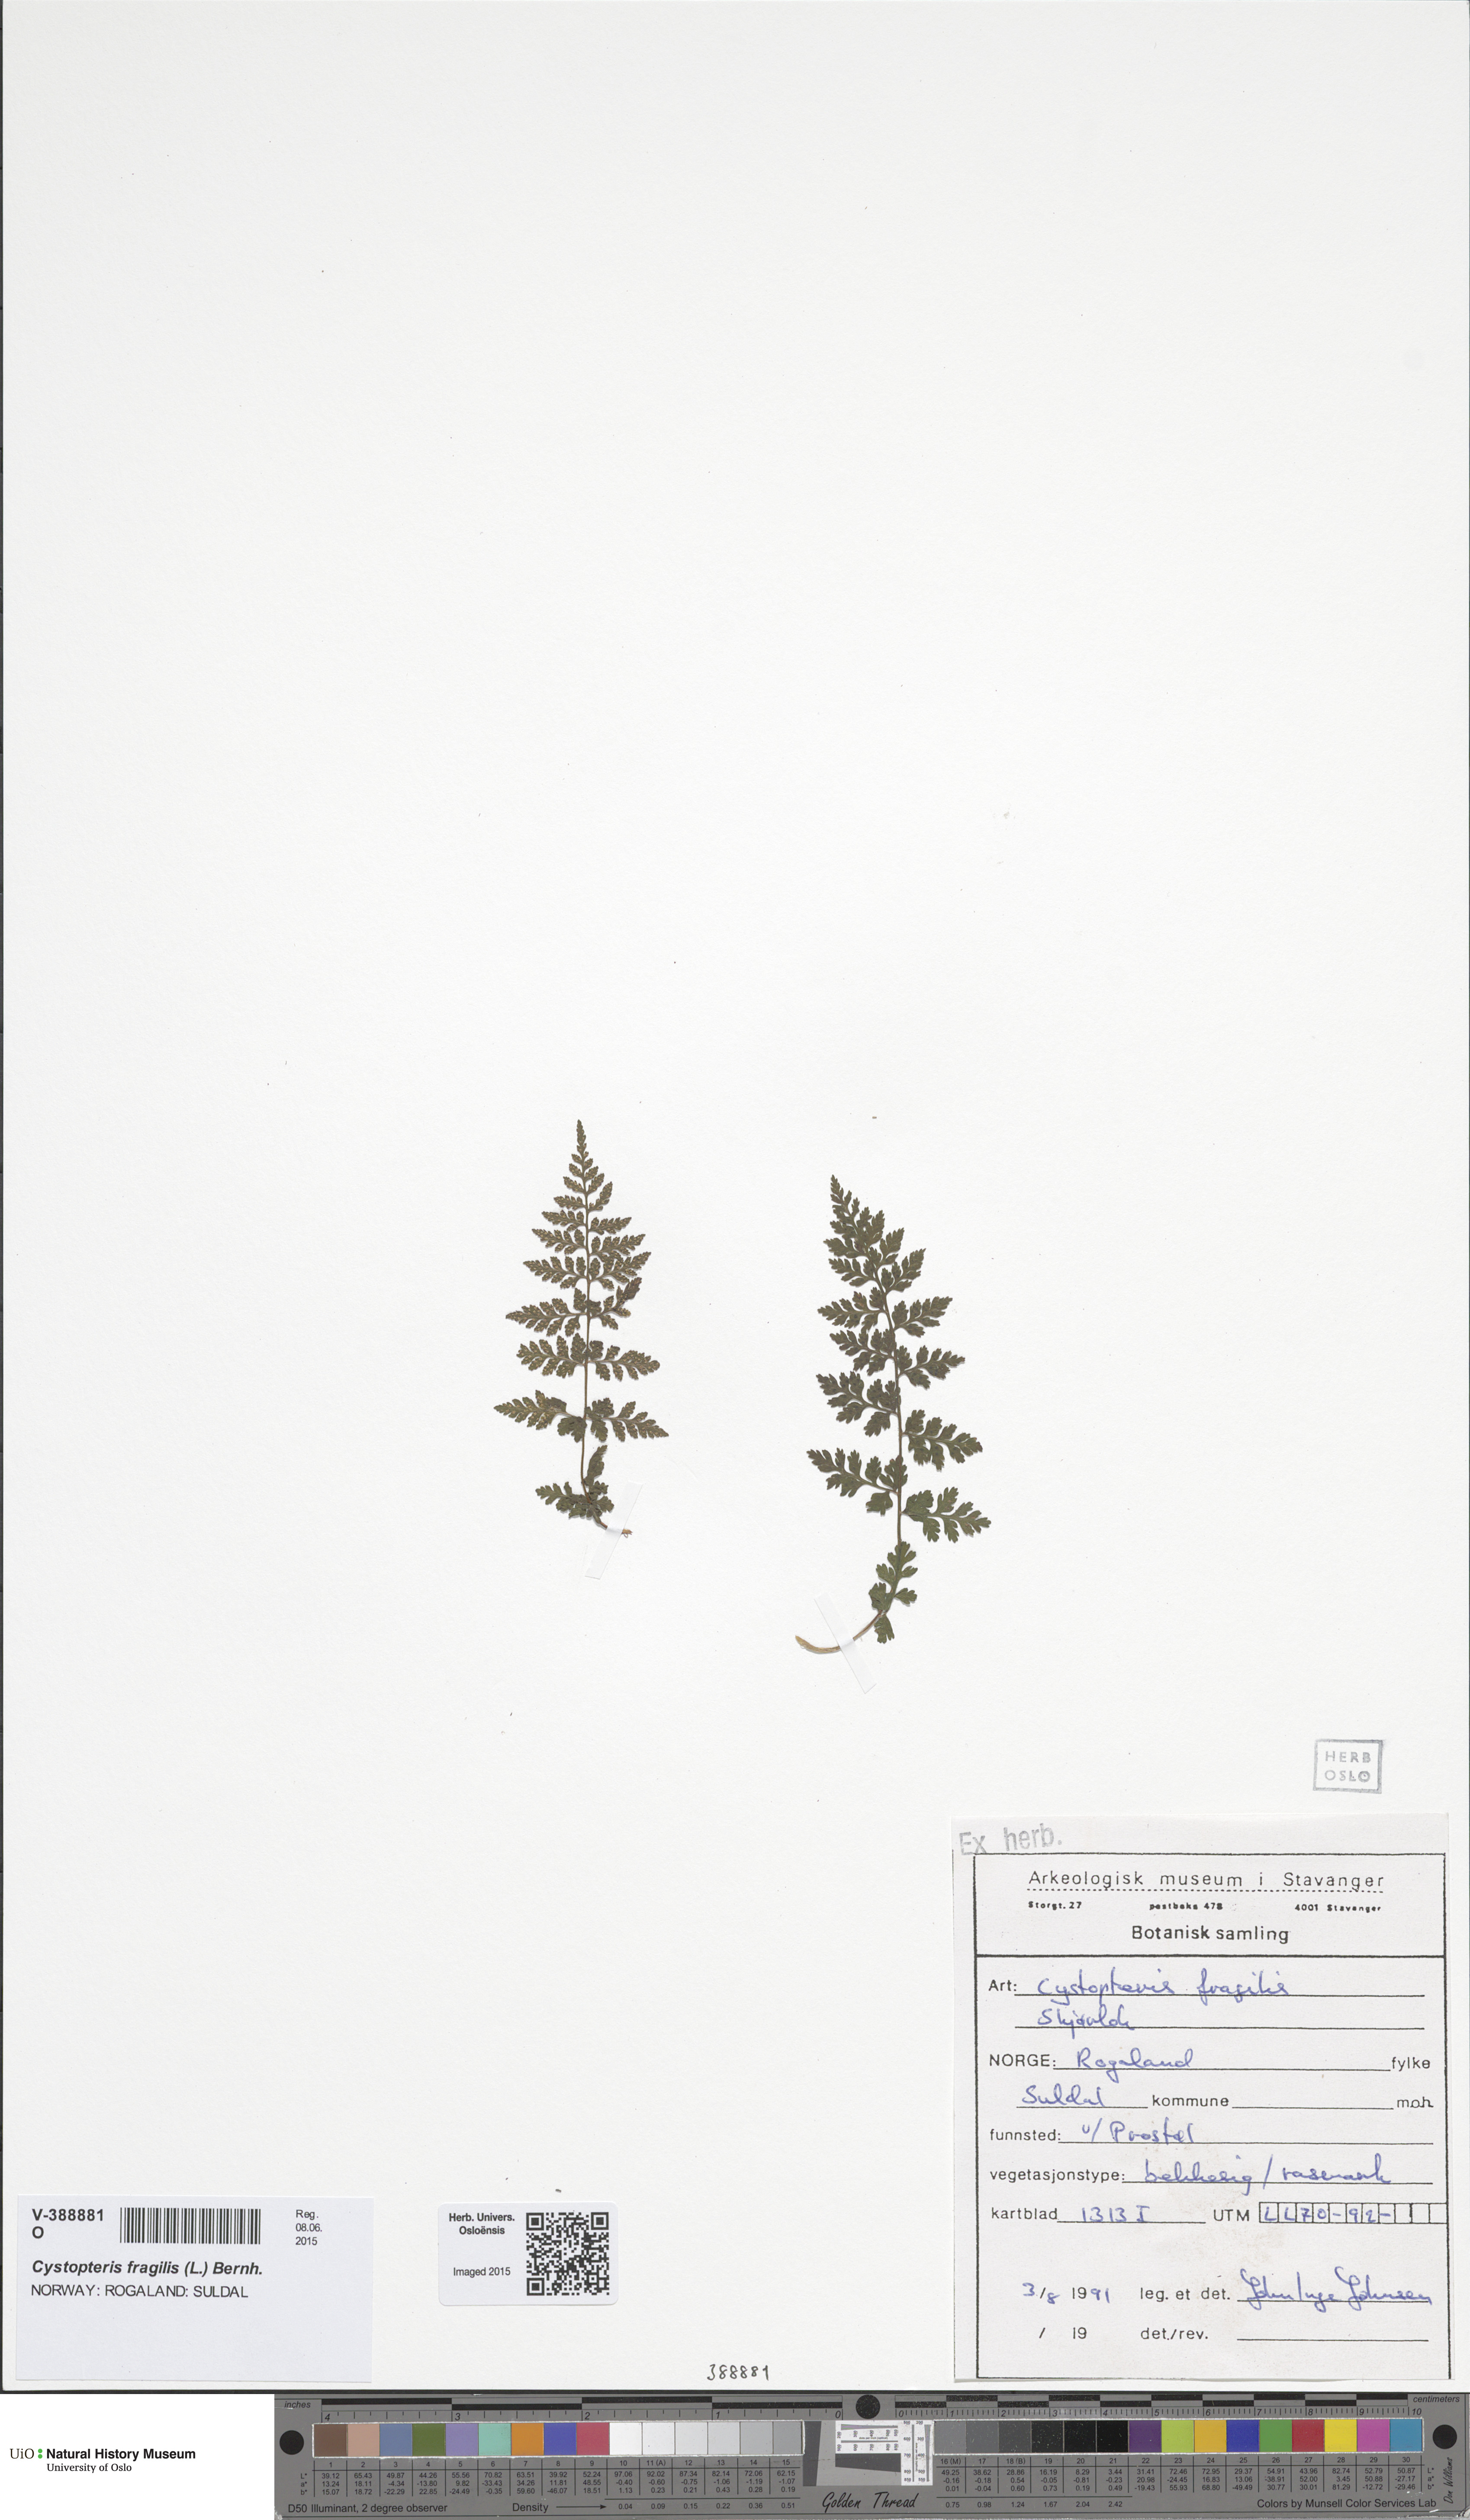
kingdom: Plantae
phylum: Tracheophyta
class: Polypodiopsida
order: Polypodiales
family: Cystopteridaceae
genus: Cystopteris
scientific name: Cystopteris fragilis
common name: Brittle bladder fern
